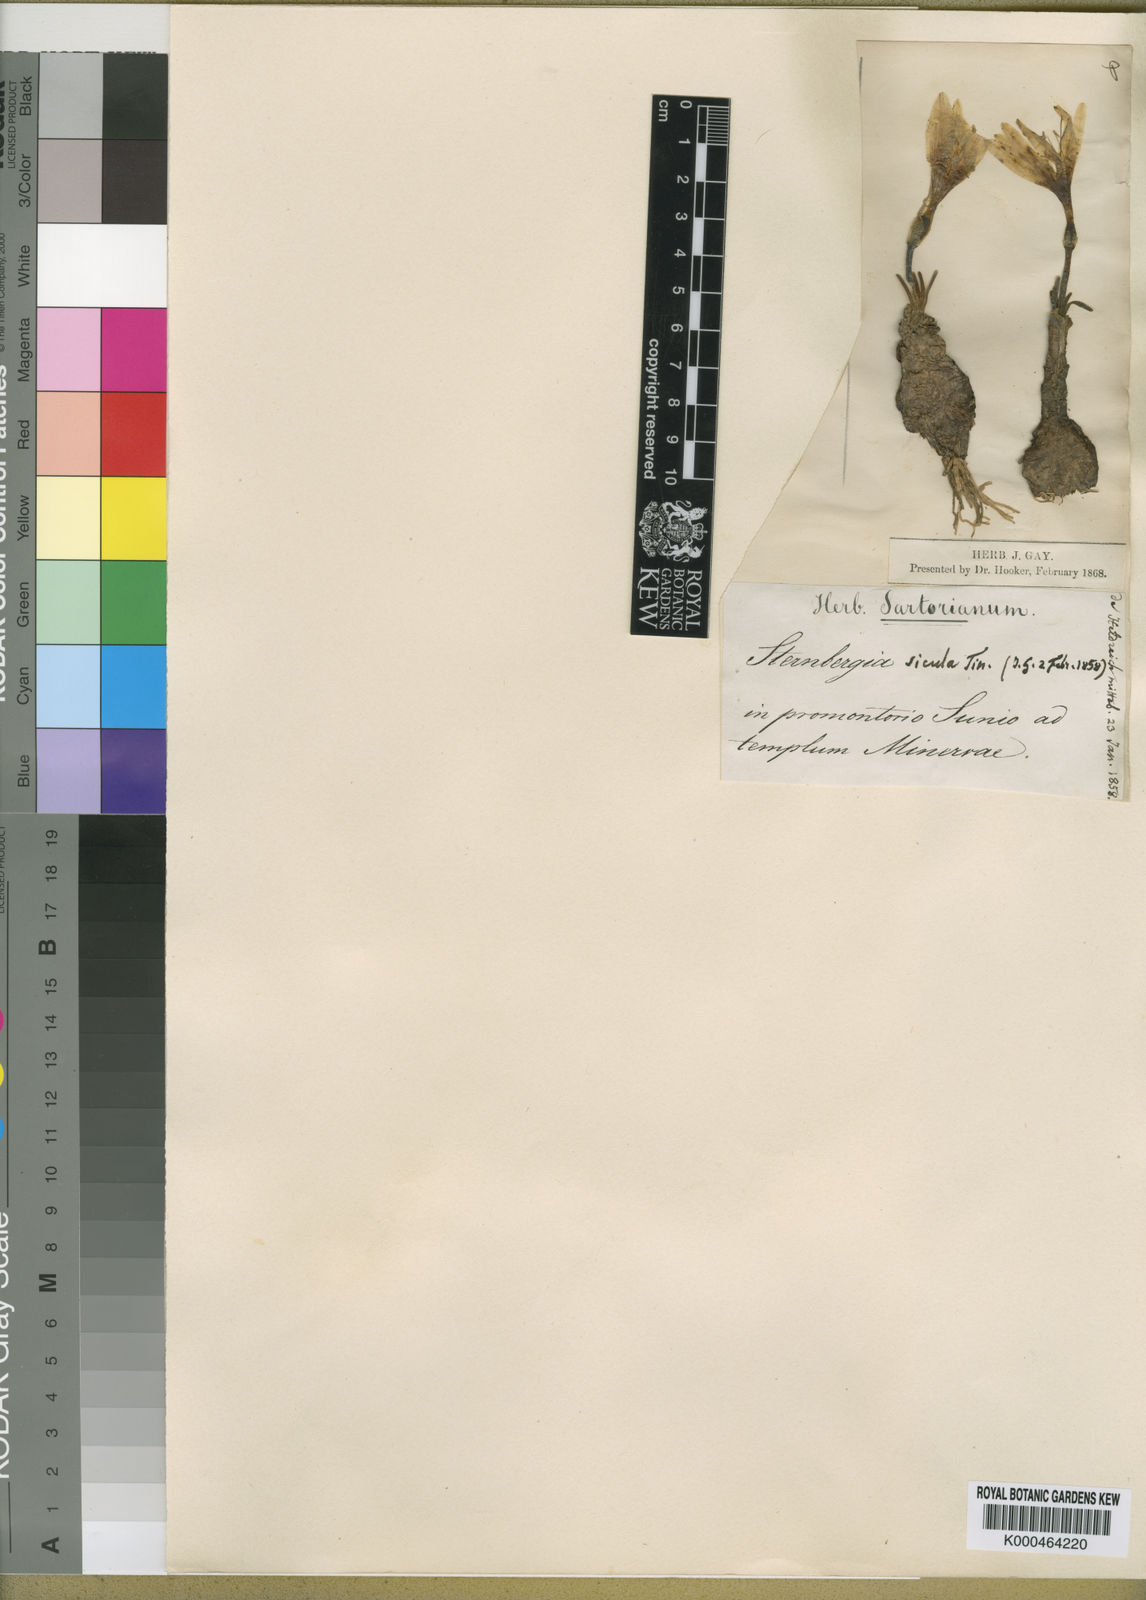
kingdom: Plantae
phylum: Tracheophyta
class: Liliopsida
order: Asparagales
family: Amaryllidaceae
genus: Sternbergia
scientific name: Sternbergia
